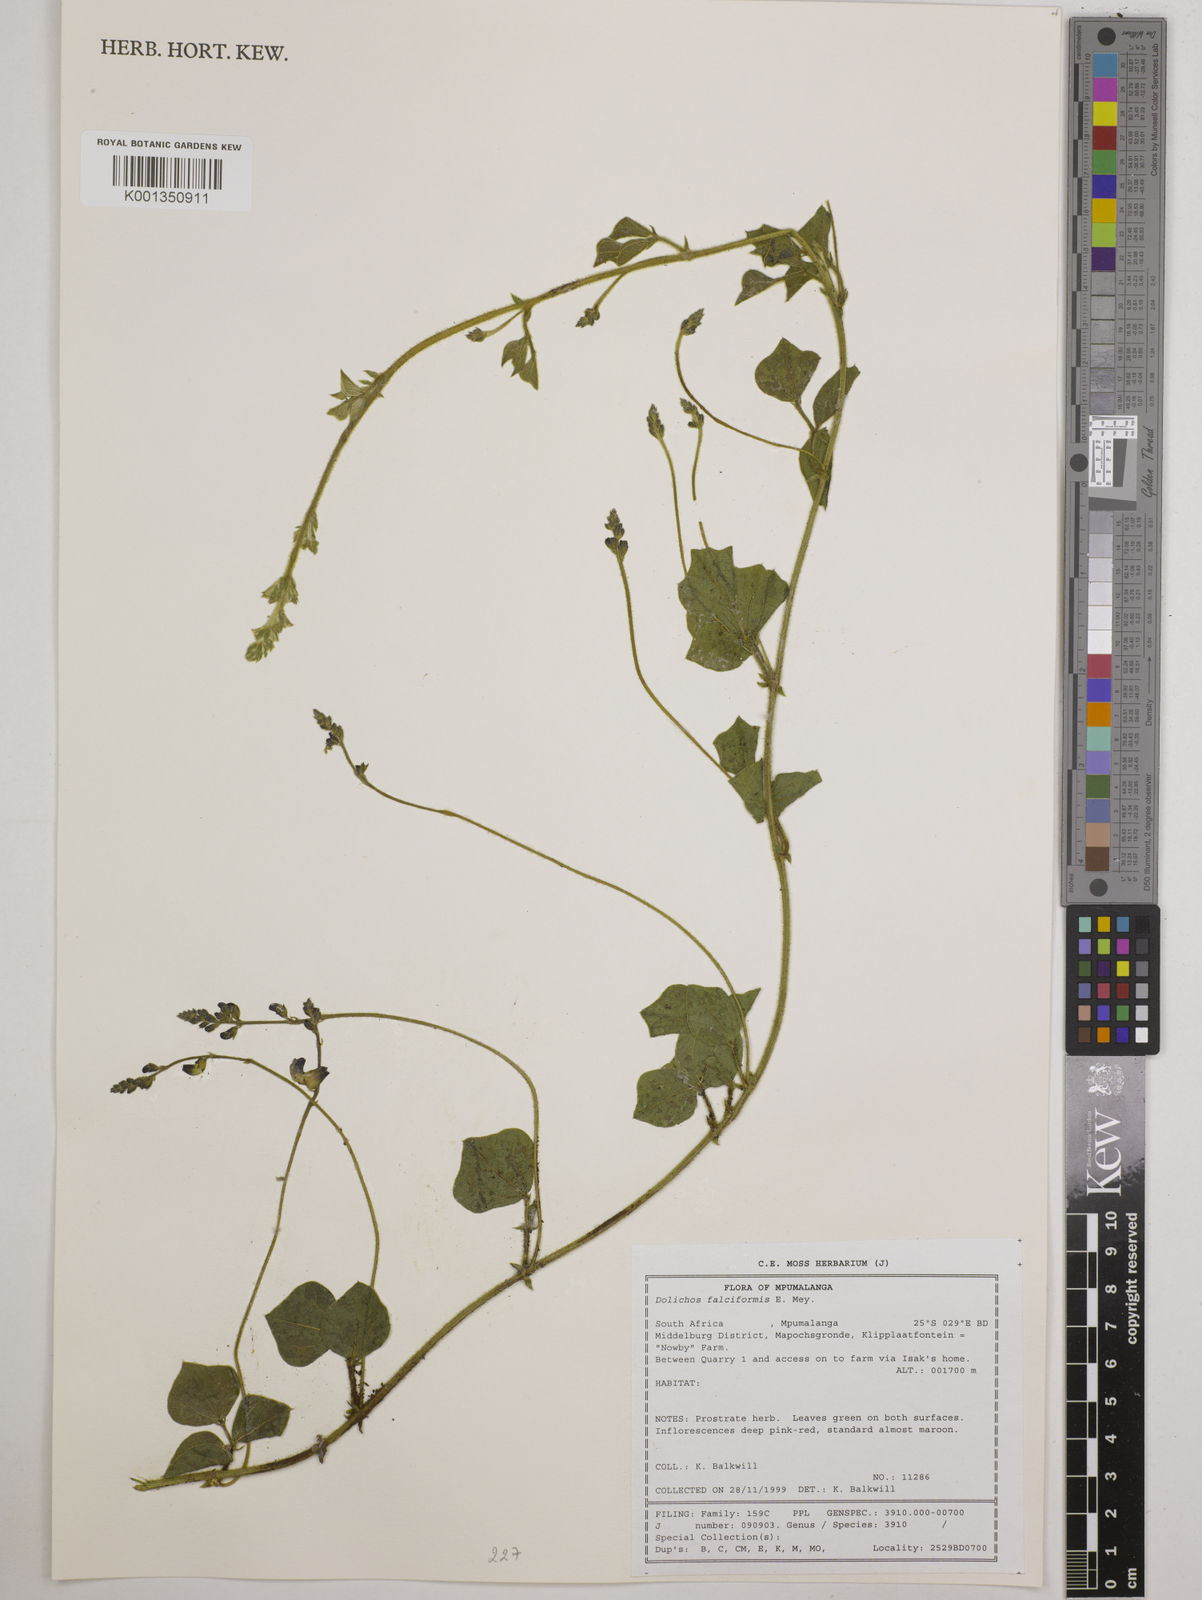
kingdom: Plantae
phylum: Tracheophyta
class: Magnoliopsida
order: Fabales
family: Fabaceae
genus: Dolichos
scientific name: Dolichos falciformis
